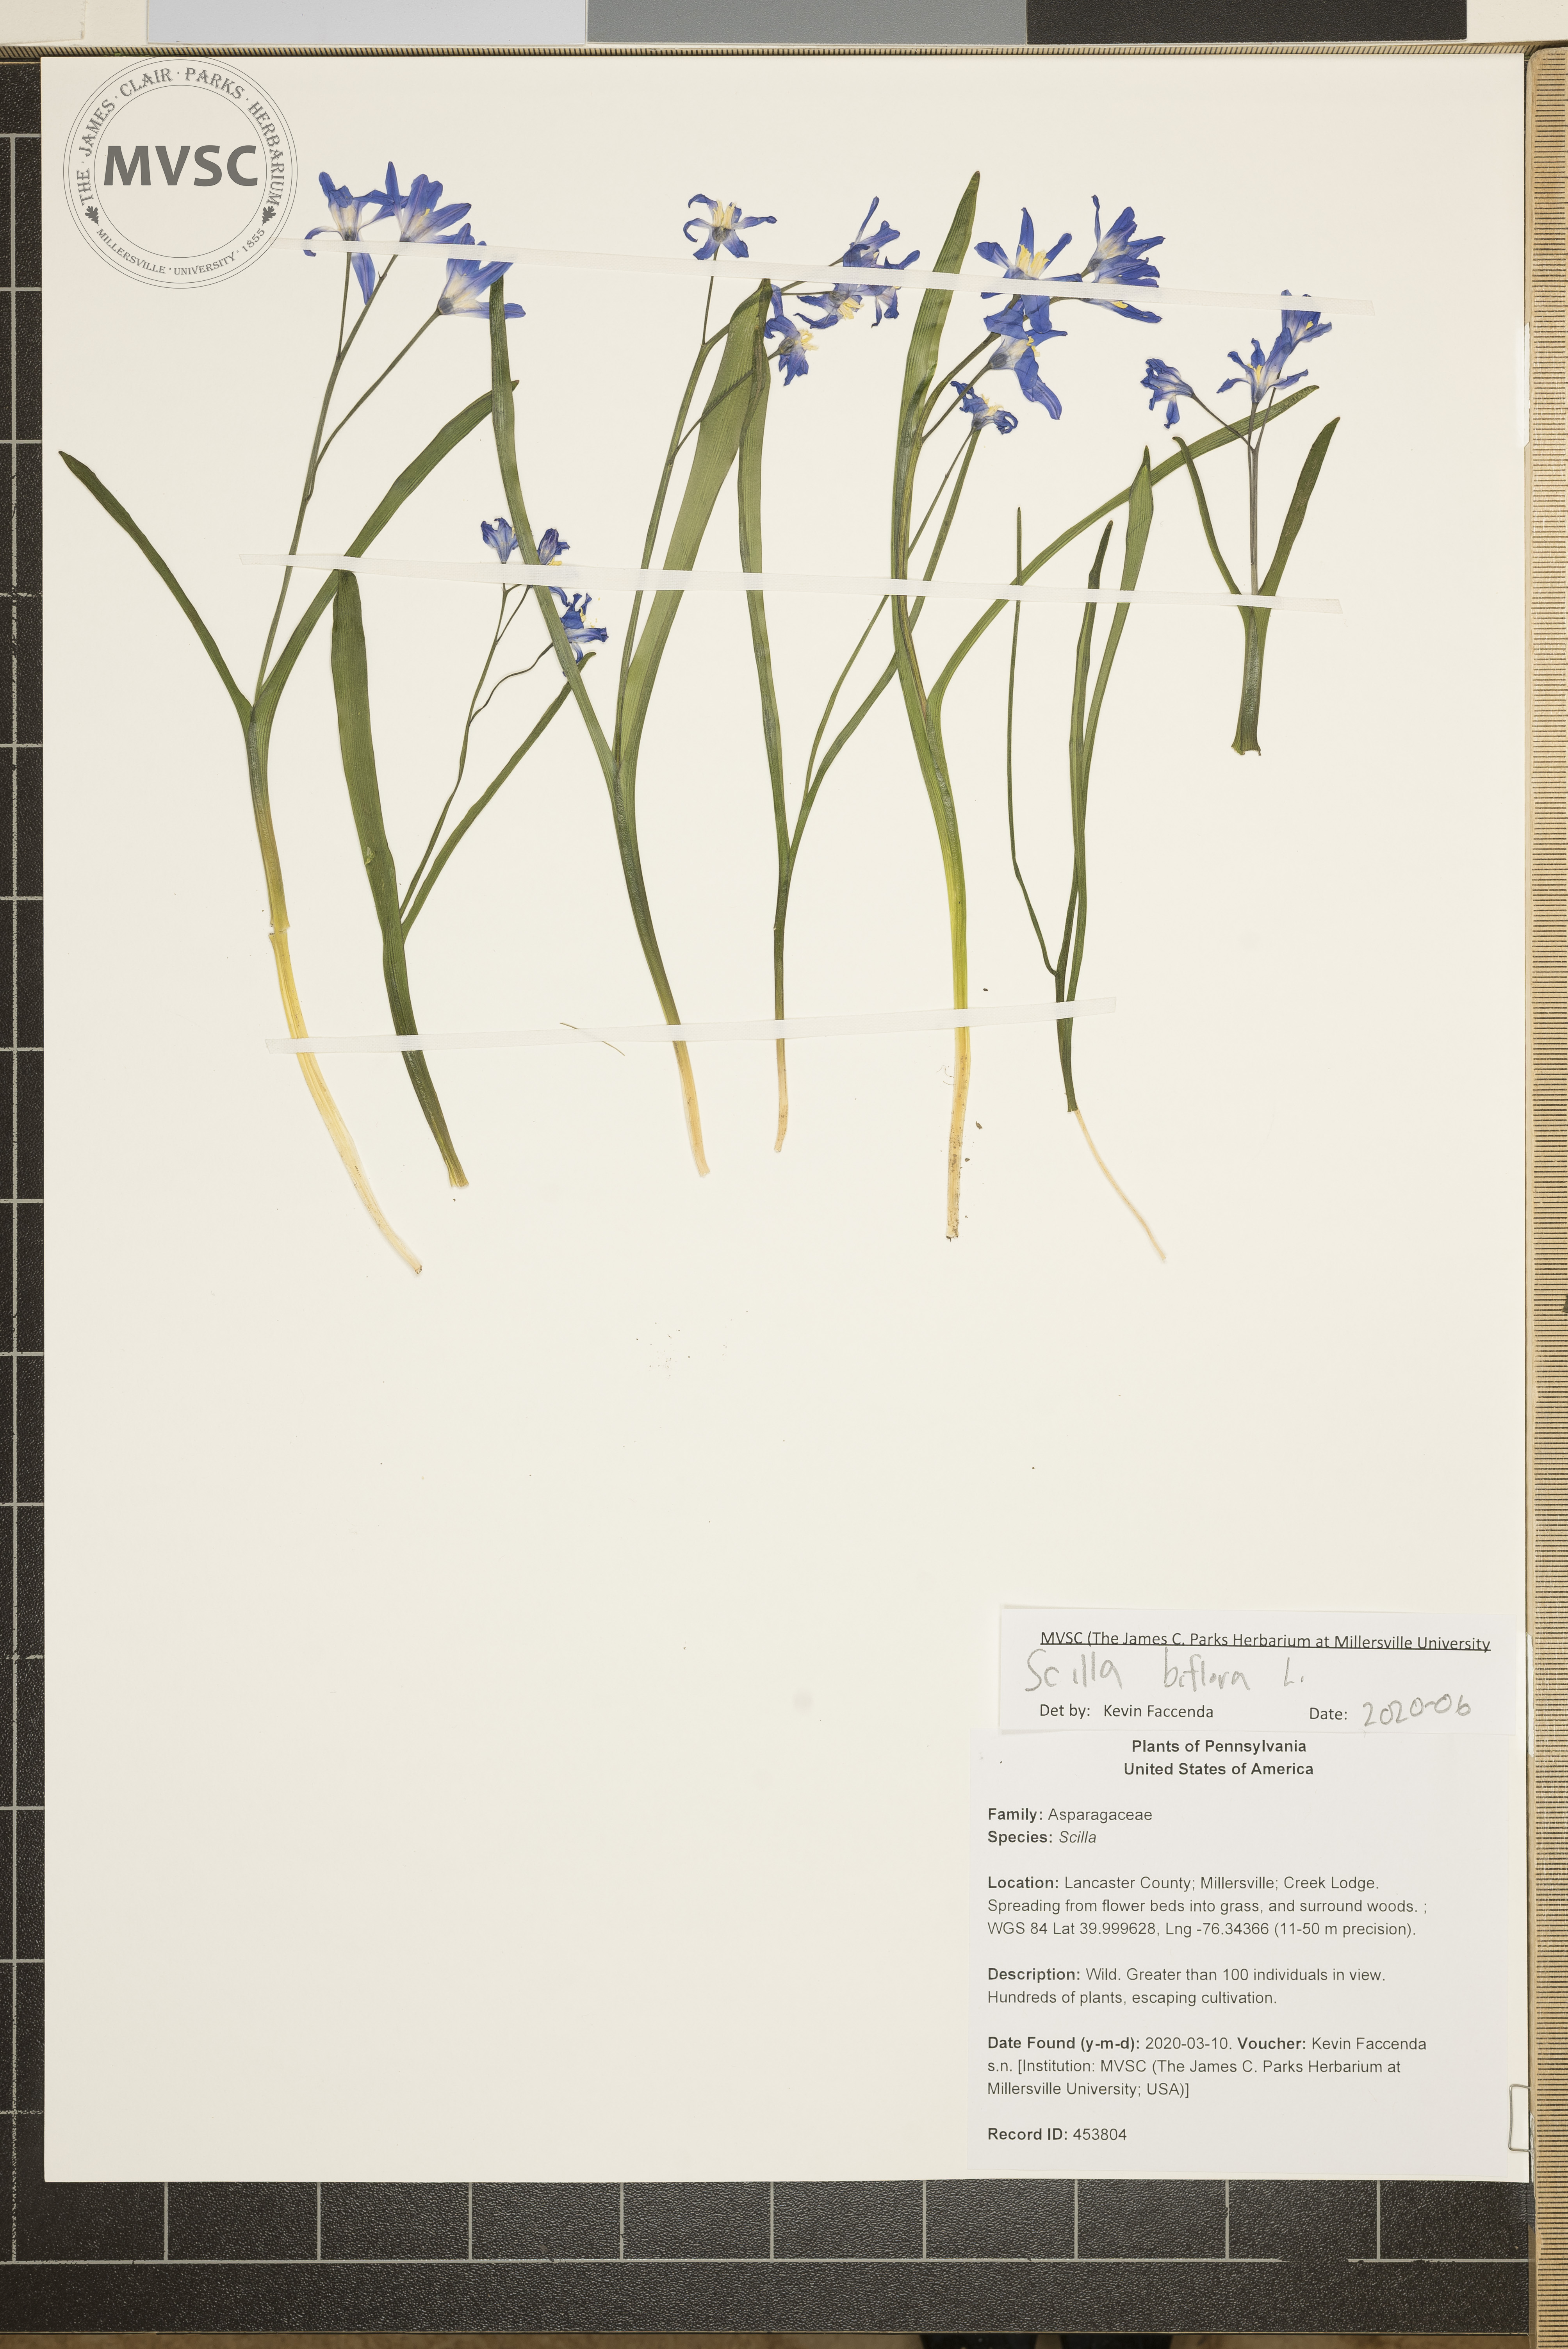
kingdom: Plantae
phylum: Tracheophyta
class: Liliopsida
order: Asparagales
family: Asparagaceae
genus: Scilla
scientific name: Scilla bifolia
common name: Alpine squill
